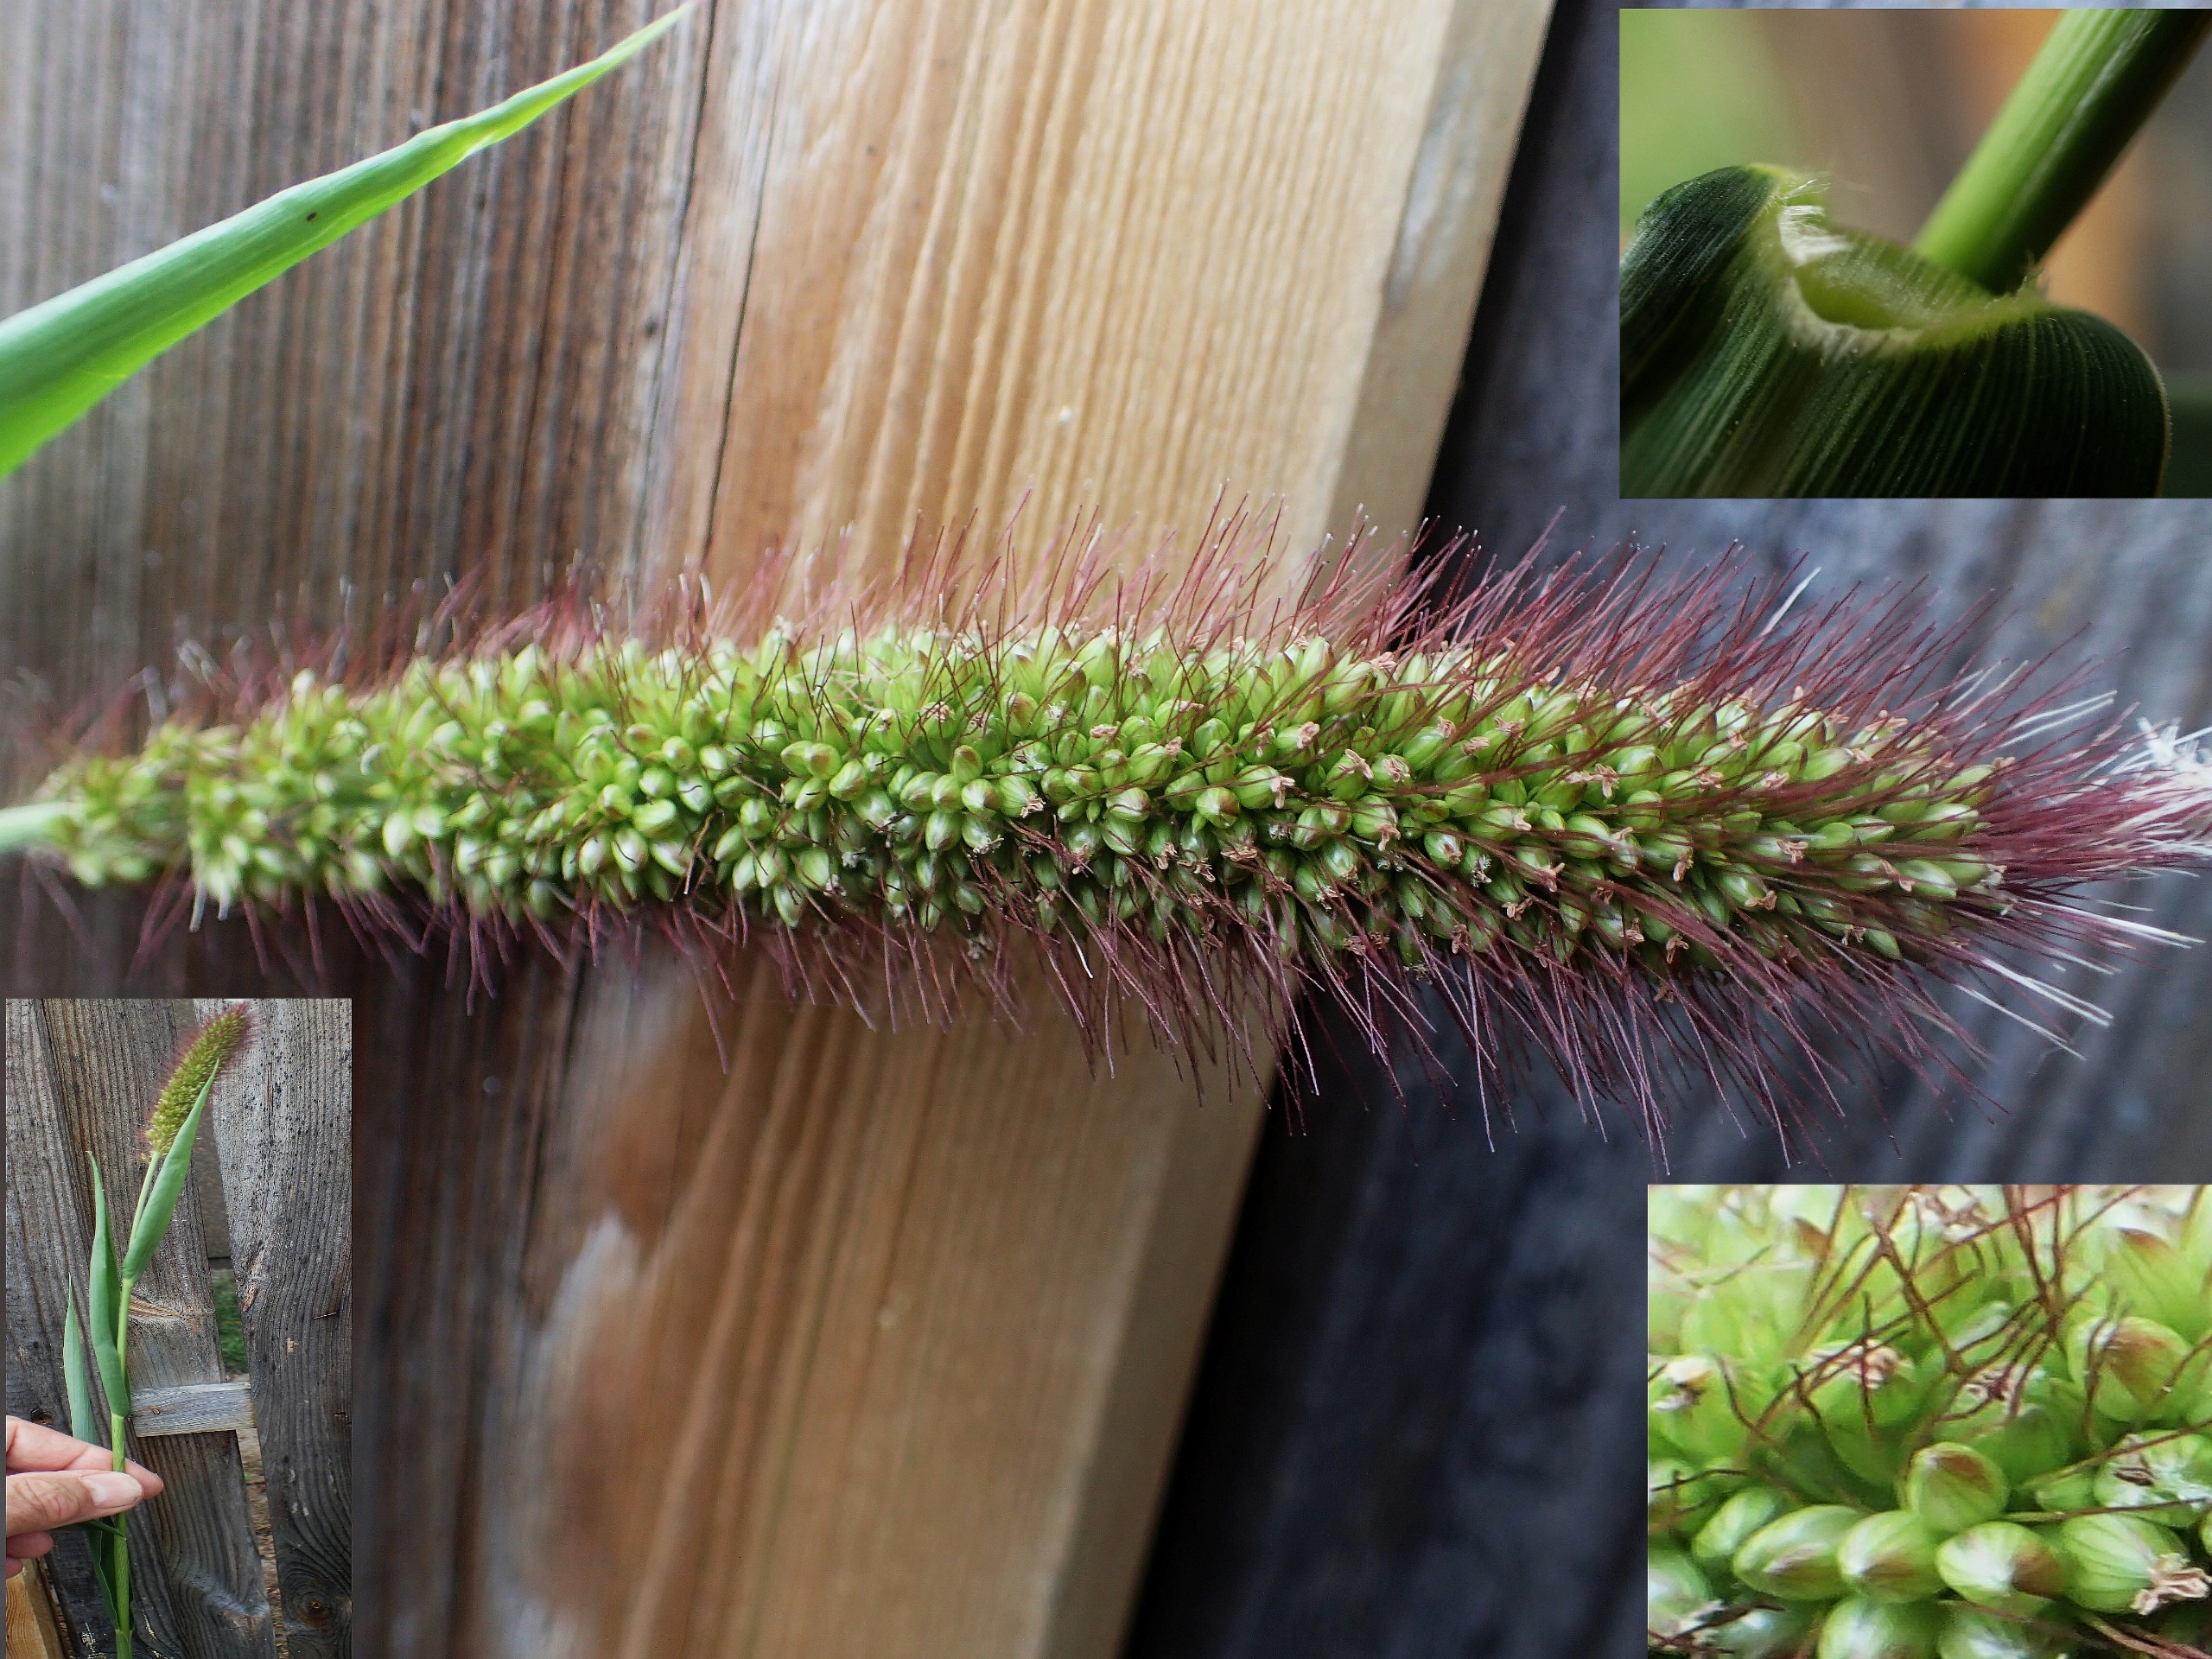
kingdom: Plantae
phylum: Tracheophyta
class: Liliopsida
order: Poales
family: Poaceae
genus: Setaria
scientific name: Setaria italica
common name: Kolbehirse
